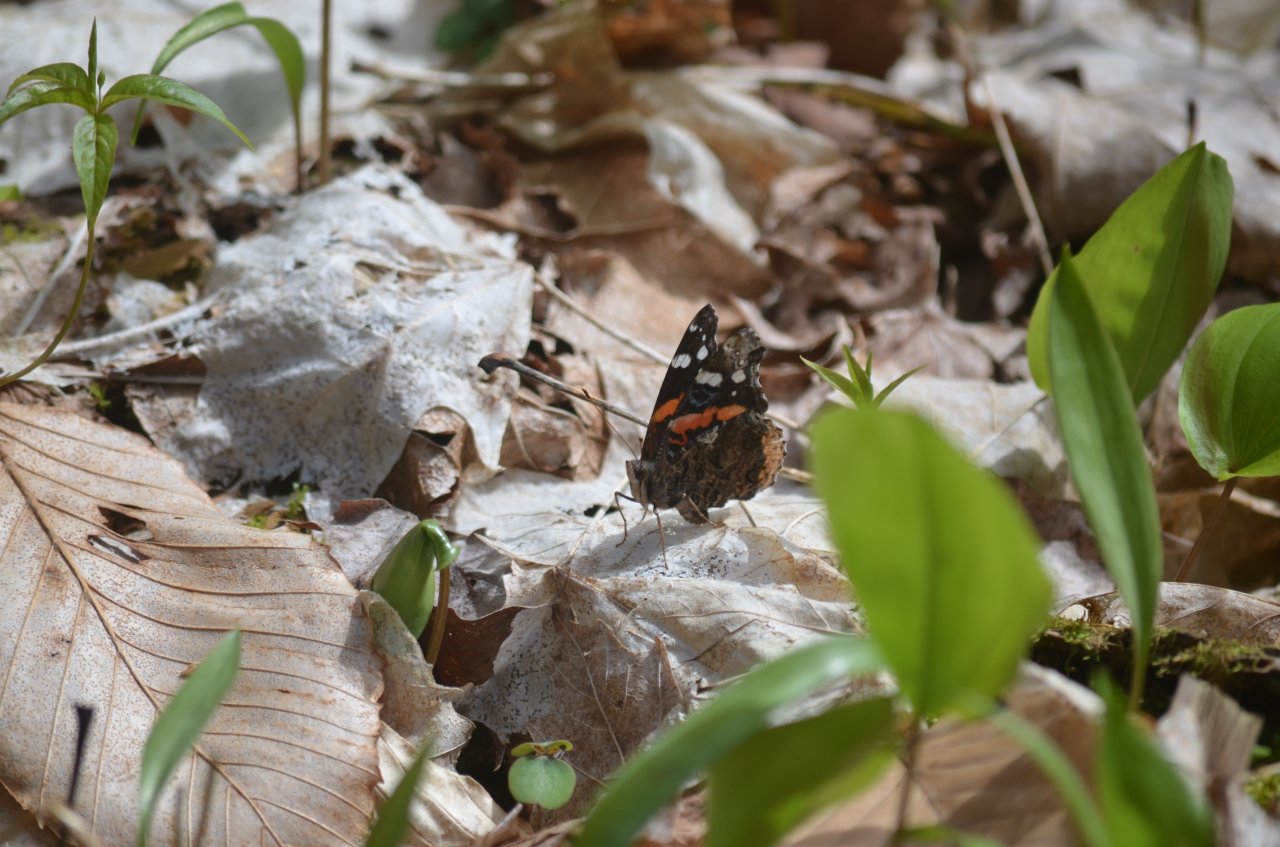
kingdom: Animalia
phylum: Arthropoda
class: Insecta
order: Lepidoptera
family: Nymphalidae
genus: Vanessa
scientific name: Vanessa atalanta
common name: Red Admiral
